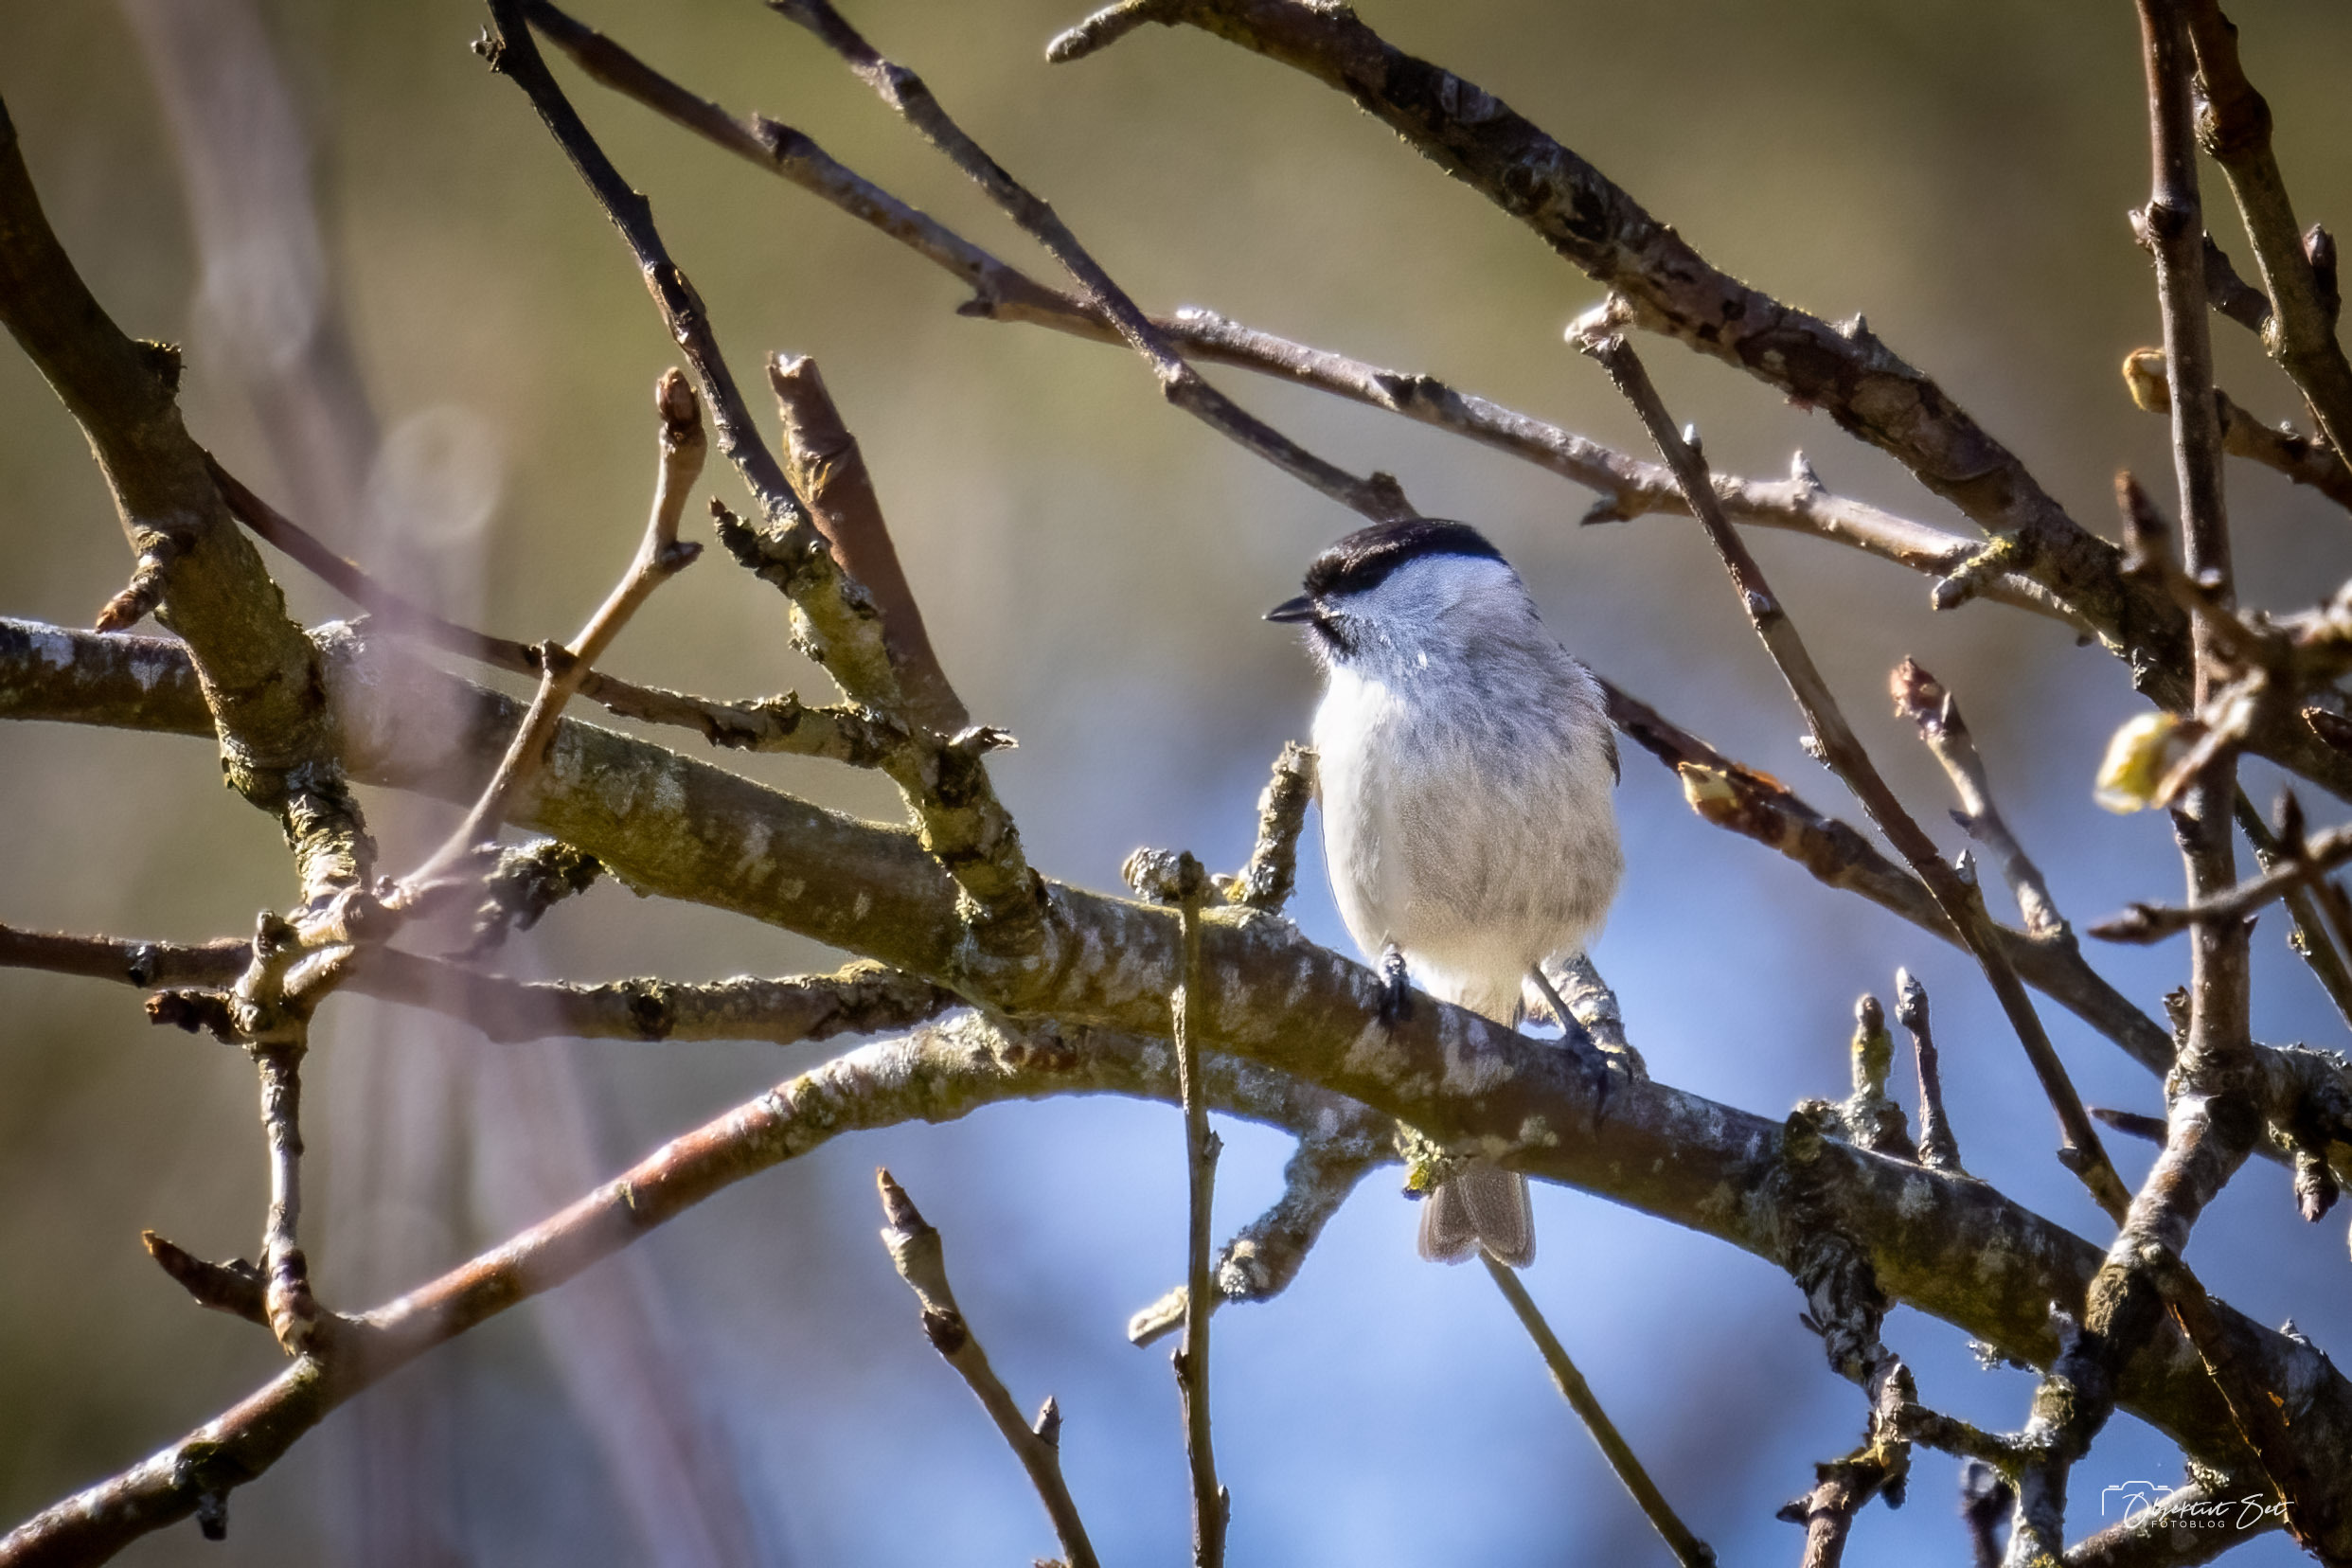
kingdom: Animalia
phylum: Chordata
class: Aves
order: Passeriformes
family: Paridae
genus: Poecile
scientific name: Poecile palustris
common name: Sumpmejse
